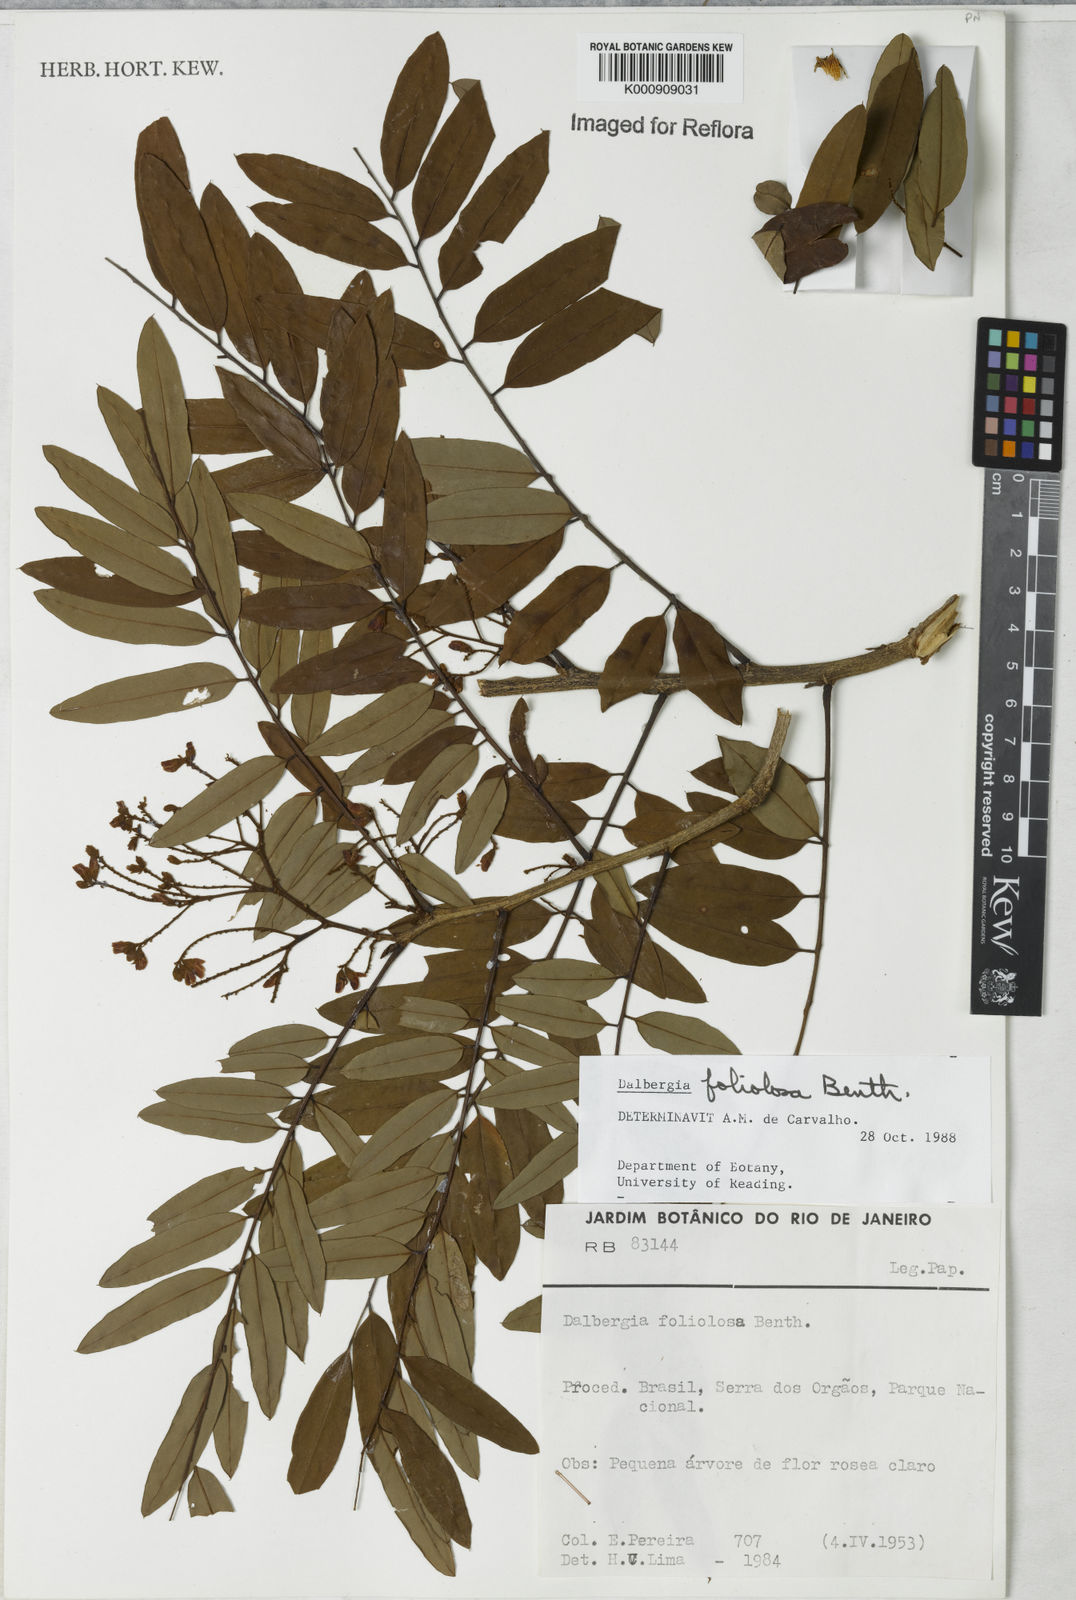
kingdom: Plantae
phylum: Tracheophyta
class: Magnoliopsida
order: Fabales
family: Fabaceae
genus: Dalbergia
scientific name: Dalbergia foliolosa
